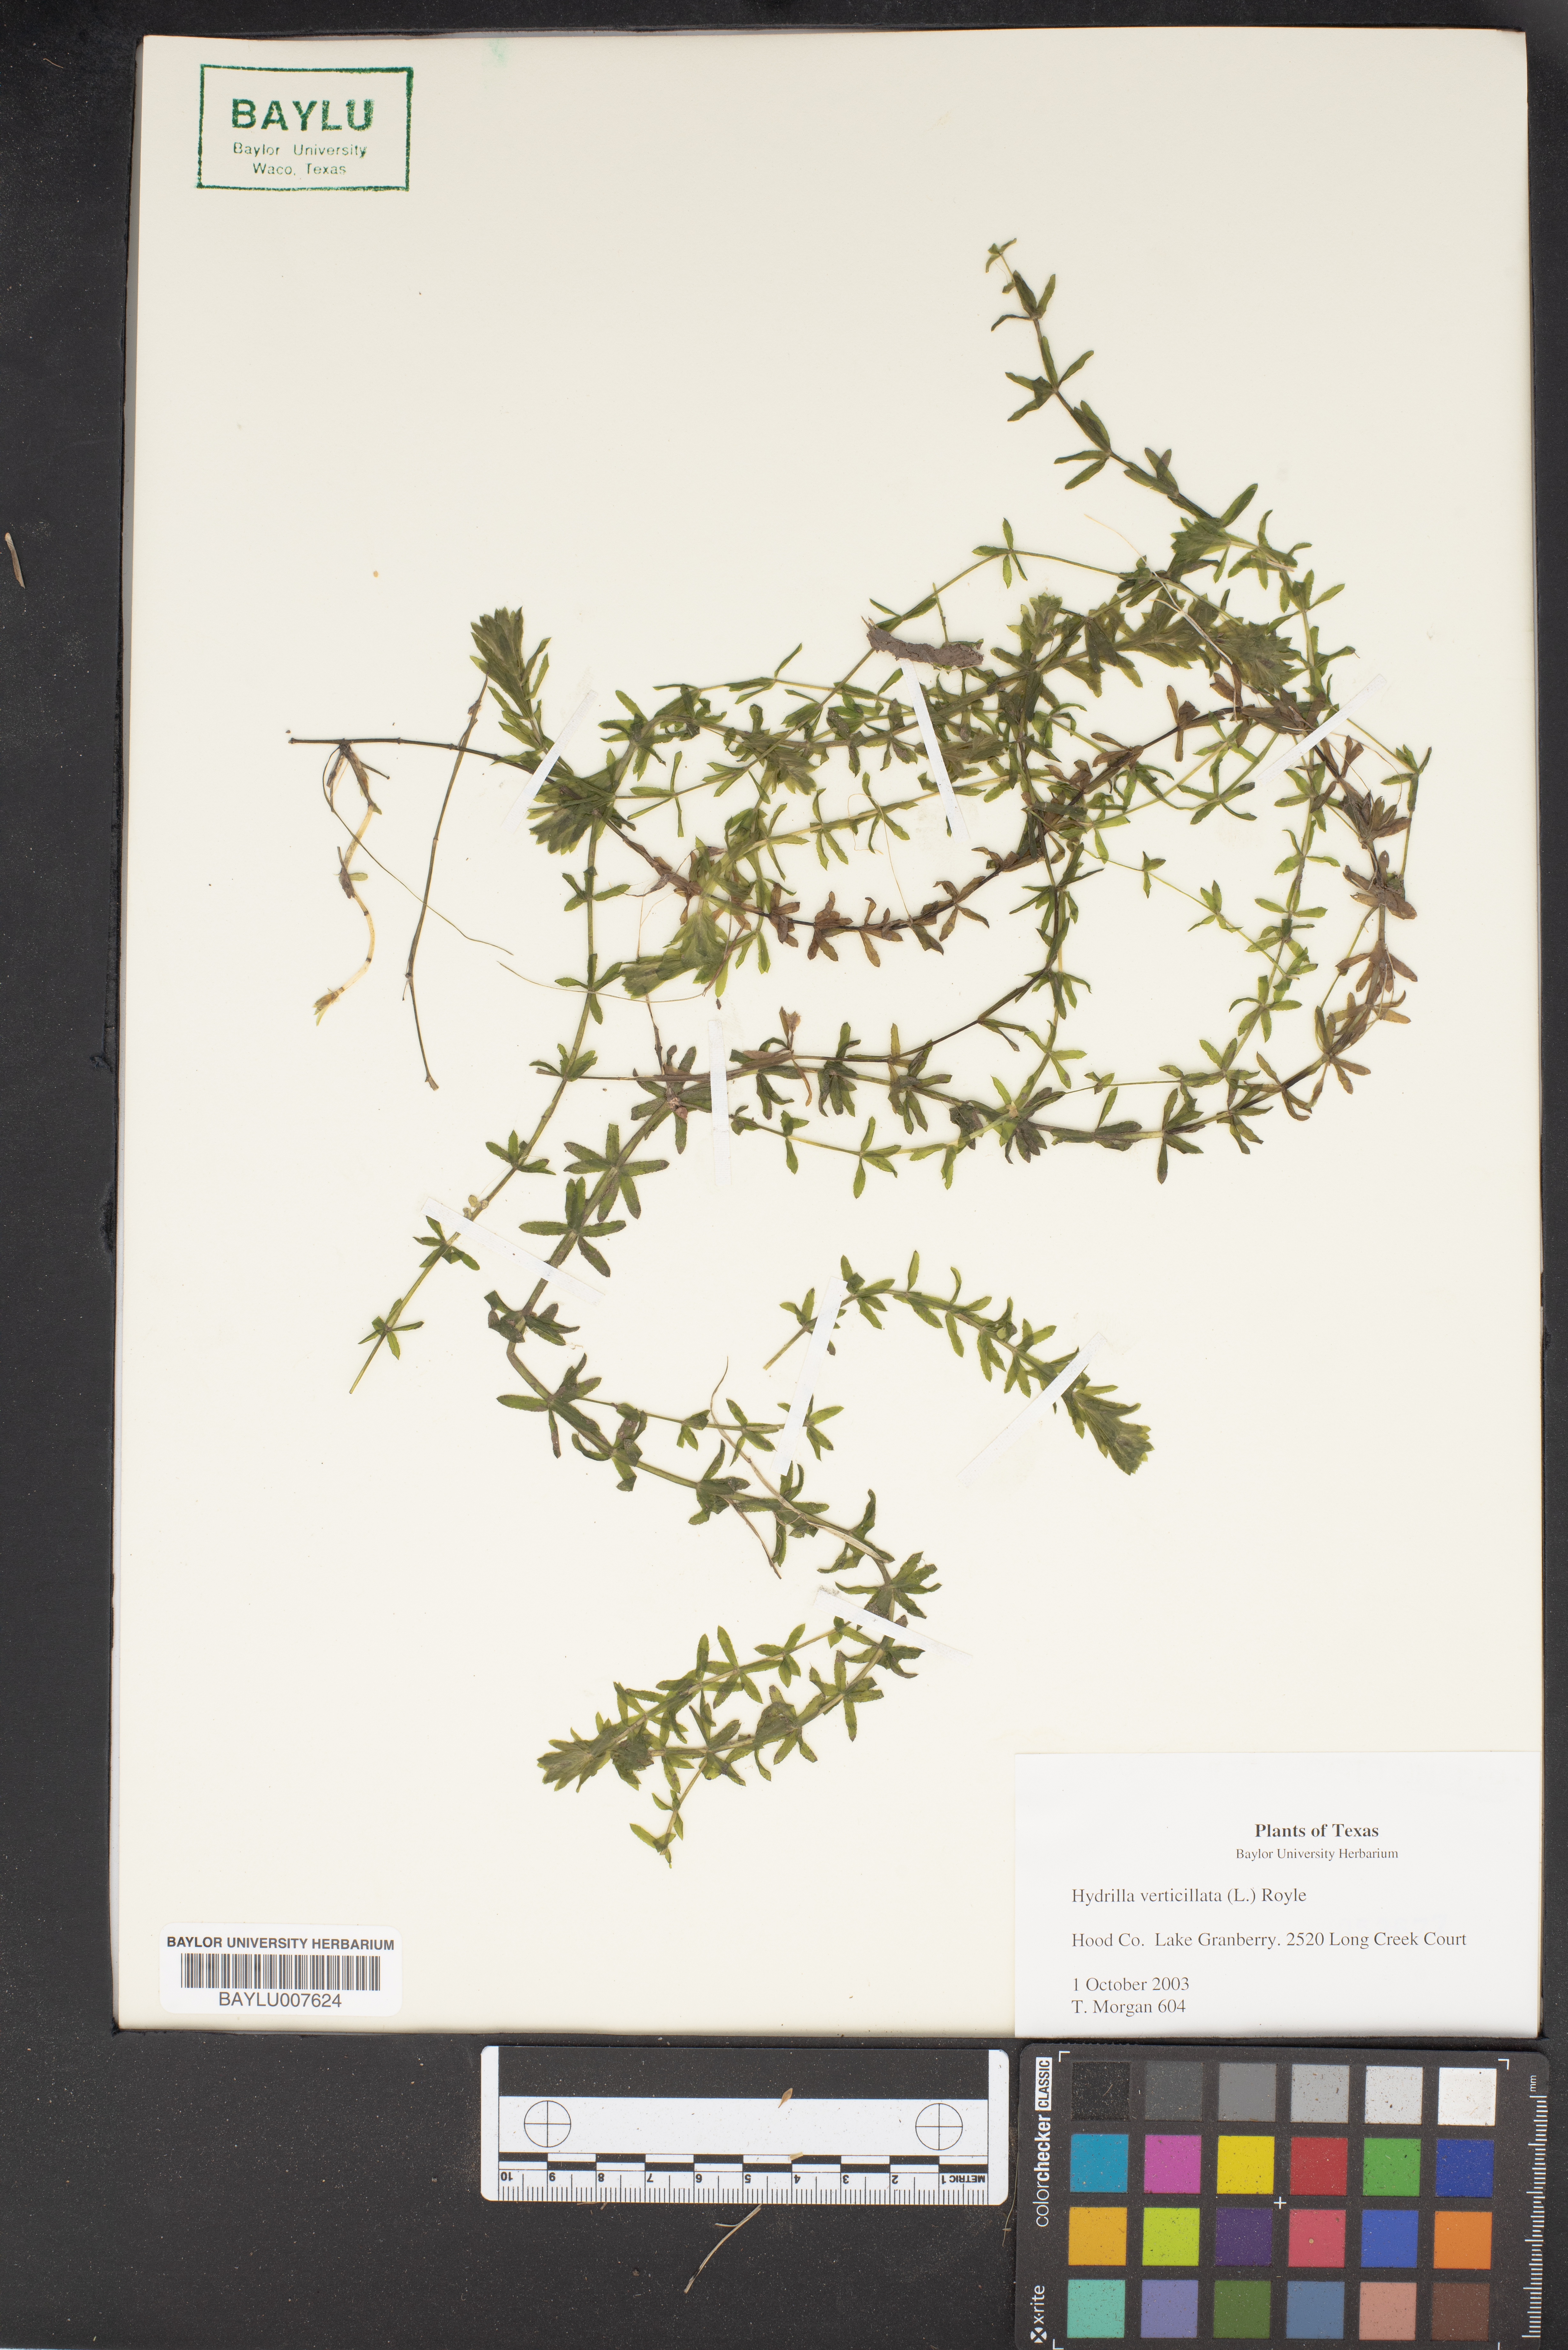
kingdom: Plantae
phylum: Tracheophyta
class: Liliopsida
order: Alismatales
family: Hydrocharitaceae
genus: Hydrilla
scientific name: Hydrilla verticillata
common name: Florida-elodea
